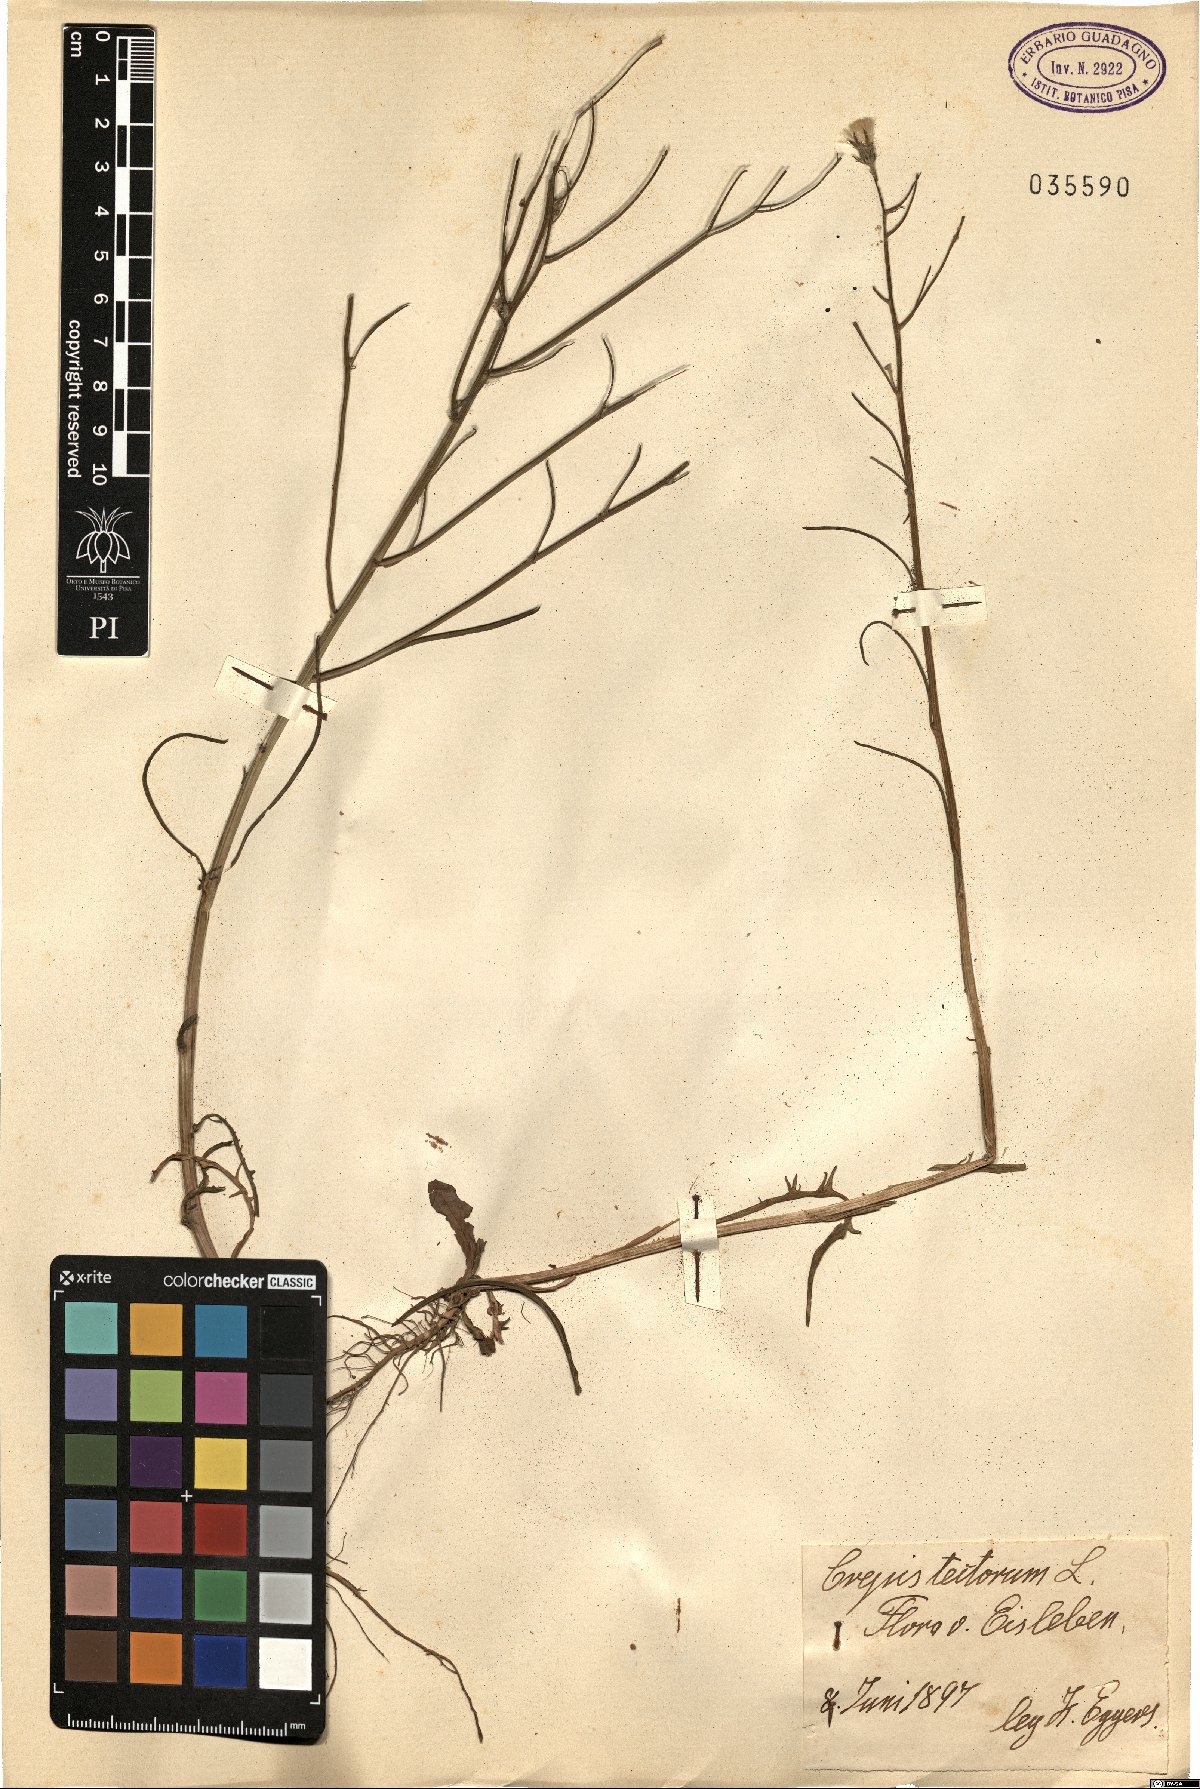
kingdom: Plantae
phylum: Tracheophyta
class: Magnoliopsida
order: Asterales
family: Asteraceae
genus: Crepis
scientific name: Crepis tectorum
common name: Narrow-leaved hawk's-beard
